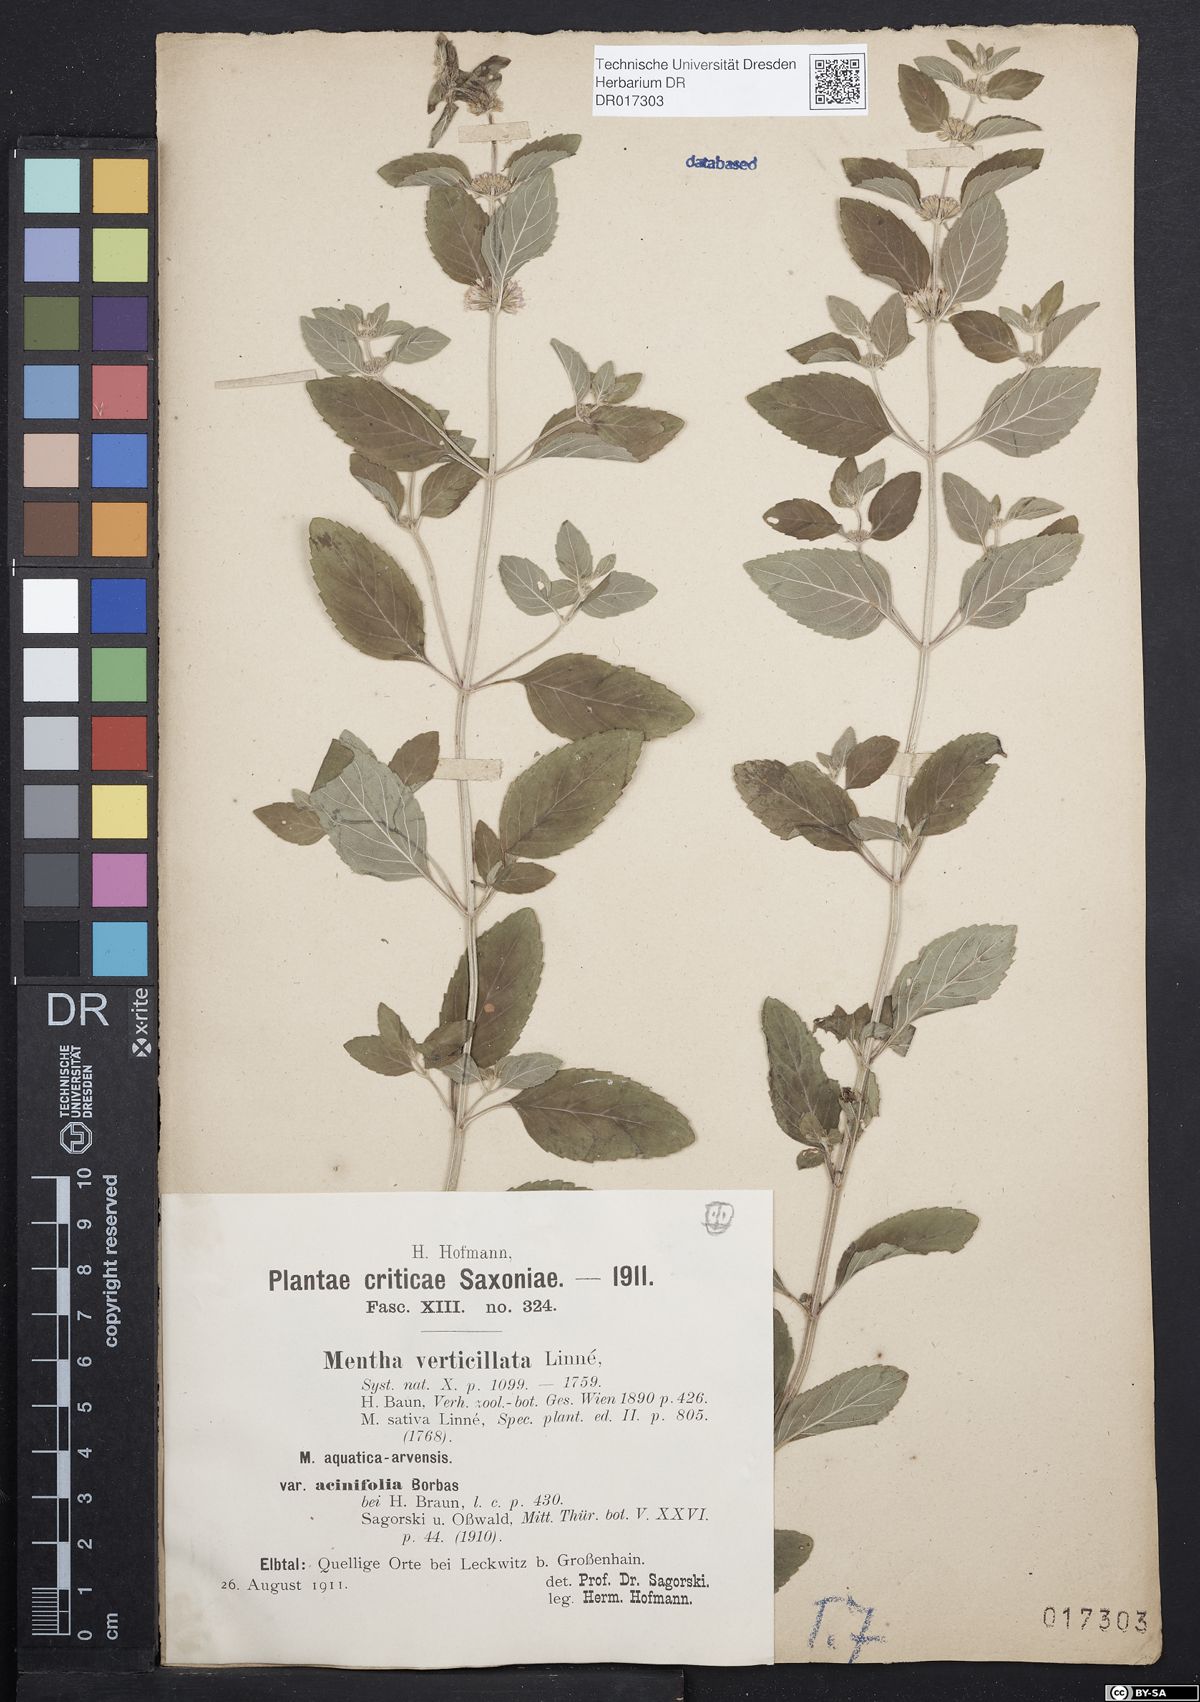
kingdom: Plantae
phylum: Tracheophyta
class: Magnoliopsida
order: Lamiales
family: Lamiaceae
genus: Mentha
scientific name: Mentha verticillata
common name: Mint
